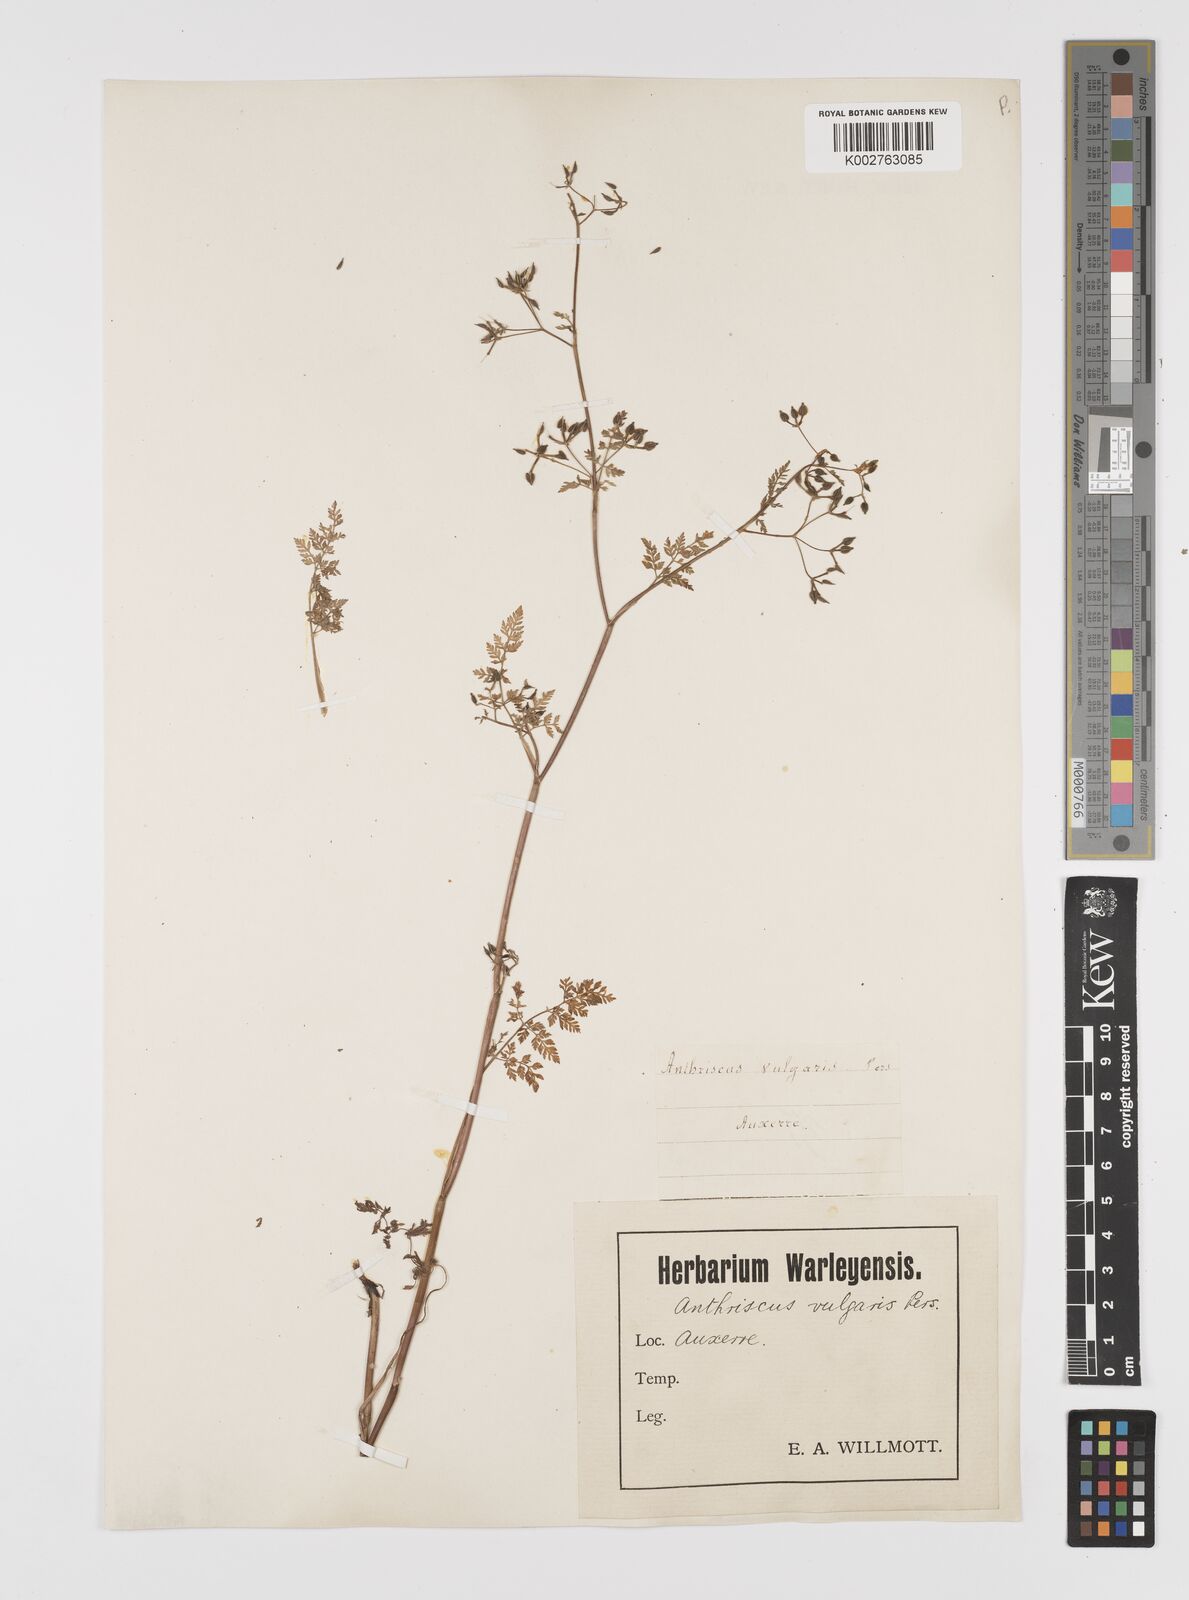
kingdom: Plantae
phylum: Tracheophyta
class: Magnoliopsida
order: Apiales
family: Apiaceae
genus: Anthriscus
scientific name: Anthriscus caucalis
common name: Bur chervil
